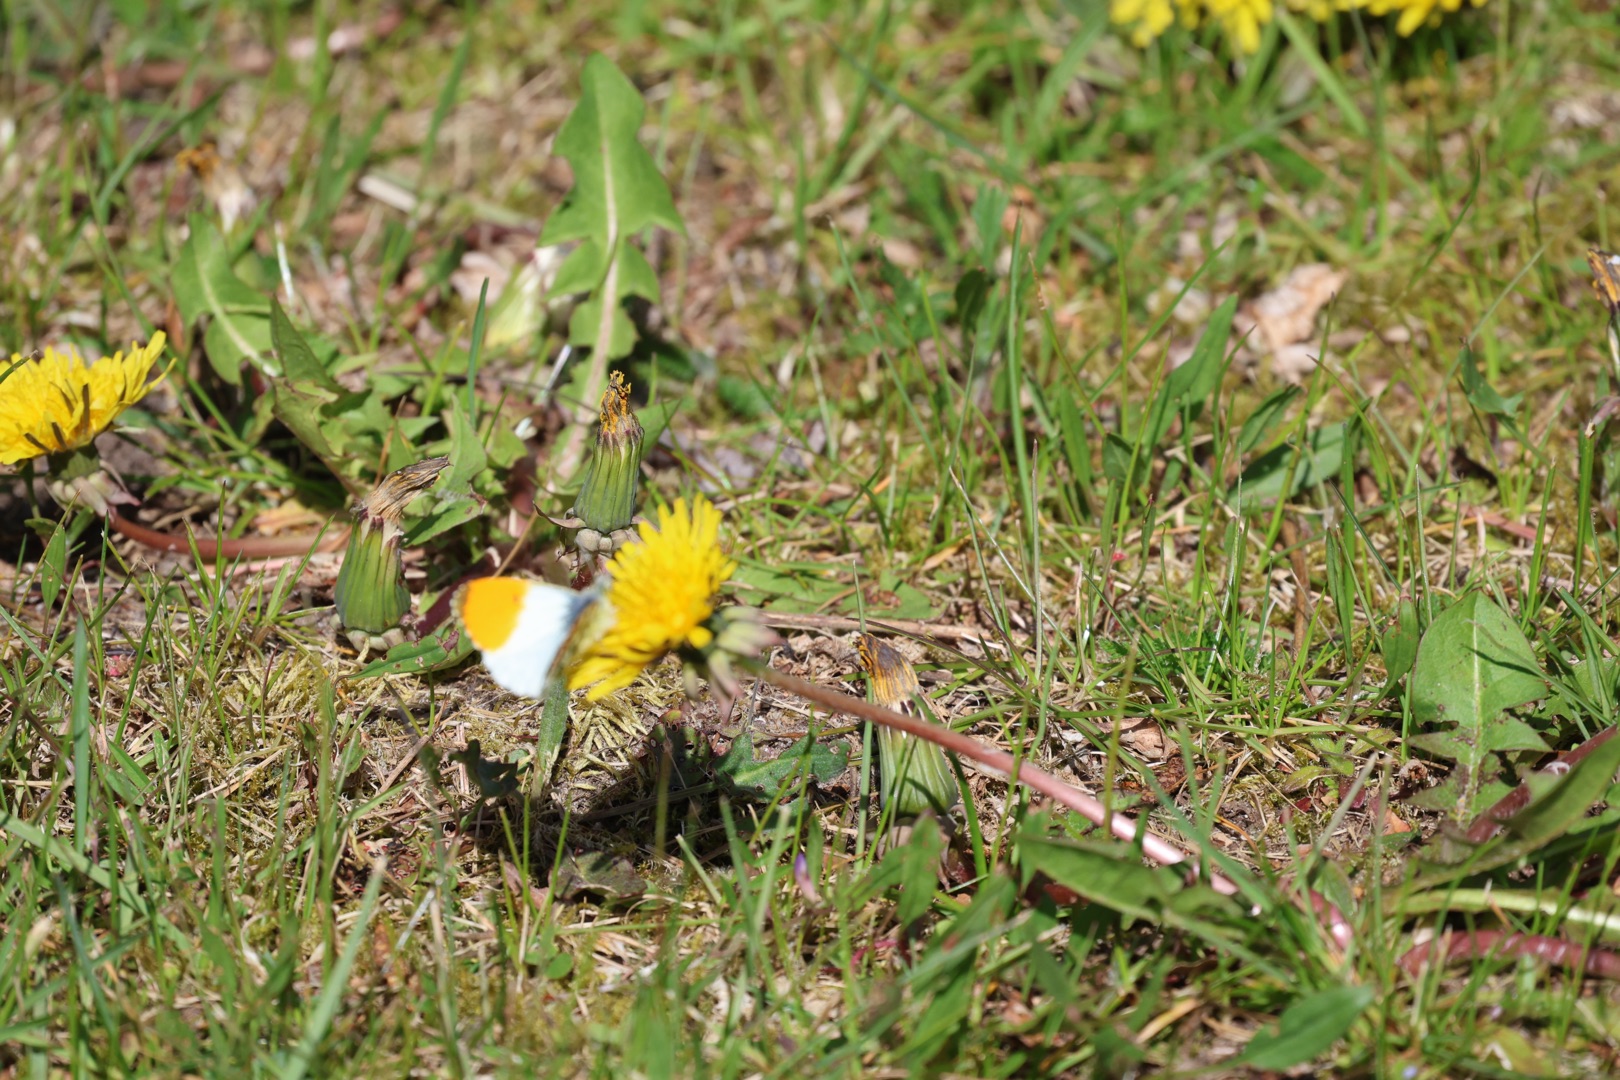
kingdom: Animalia
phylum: Arthropoda
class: Insecta
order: Lepidoptera
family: Pieridae
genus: Anthocharis
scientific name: Anthocharis cardamines
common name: Aurora
